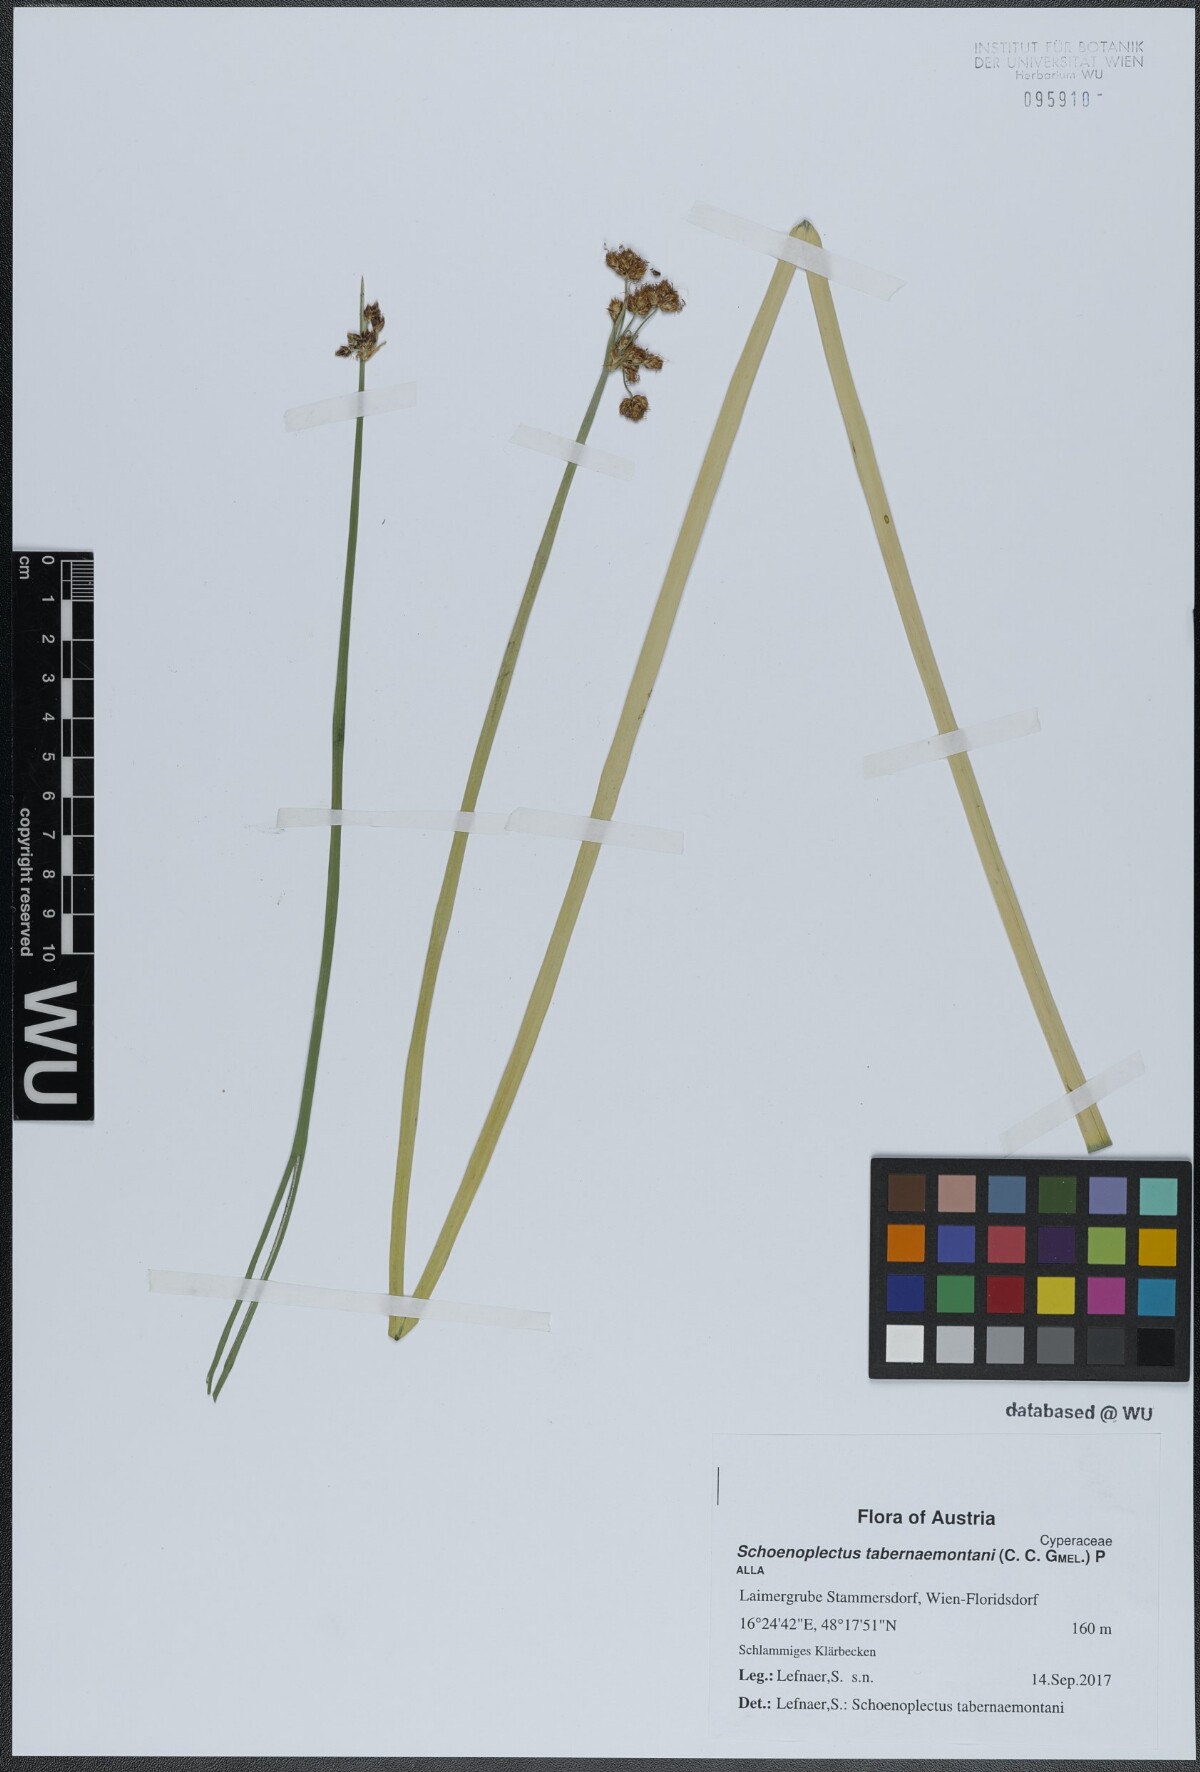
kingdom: Plantae
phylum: Tracheophyta
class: Liliopsida
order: Poales
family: Cyperaceae
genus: Schoenoplectus
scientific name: Schoenoplectus tabernaemontani
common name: Grey club-rush
